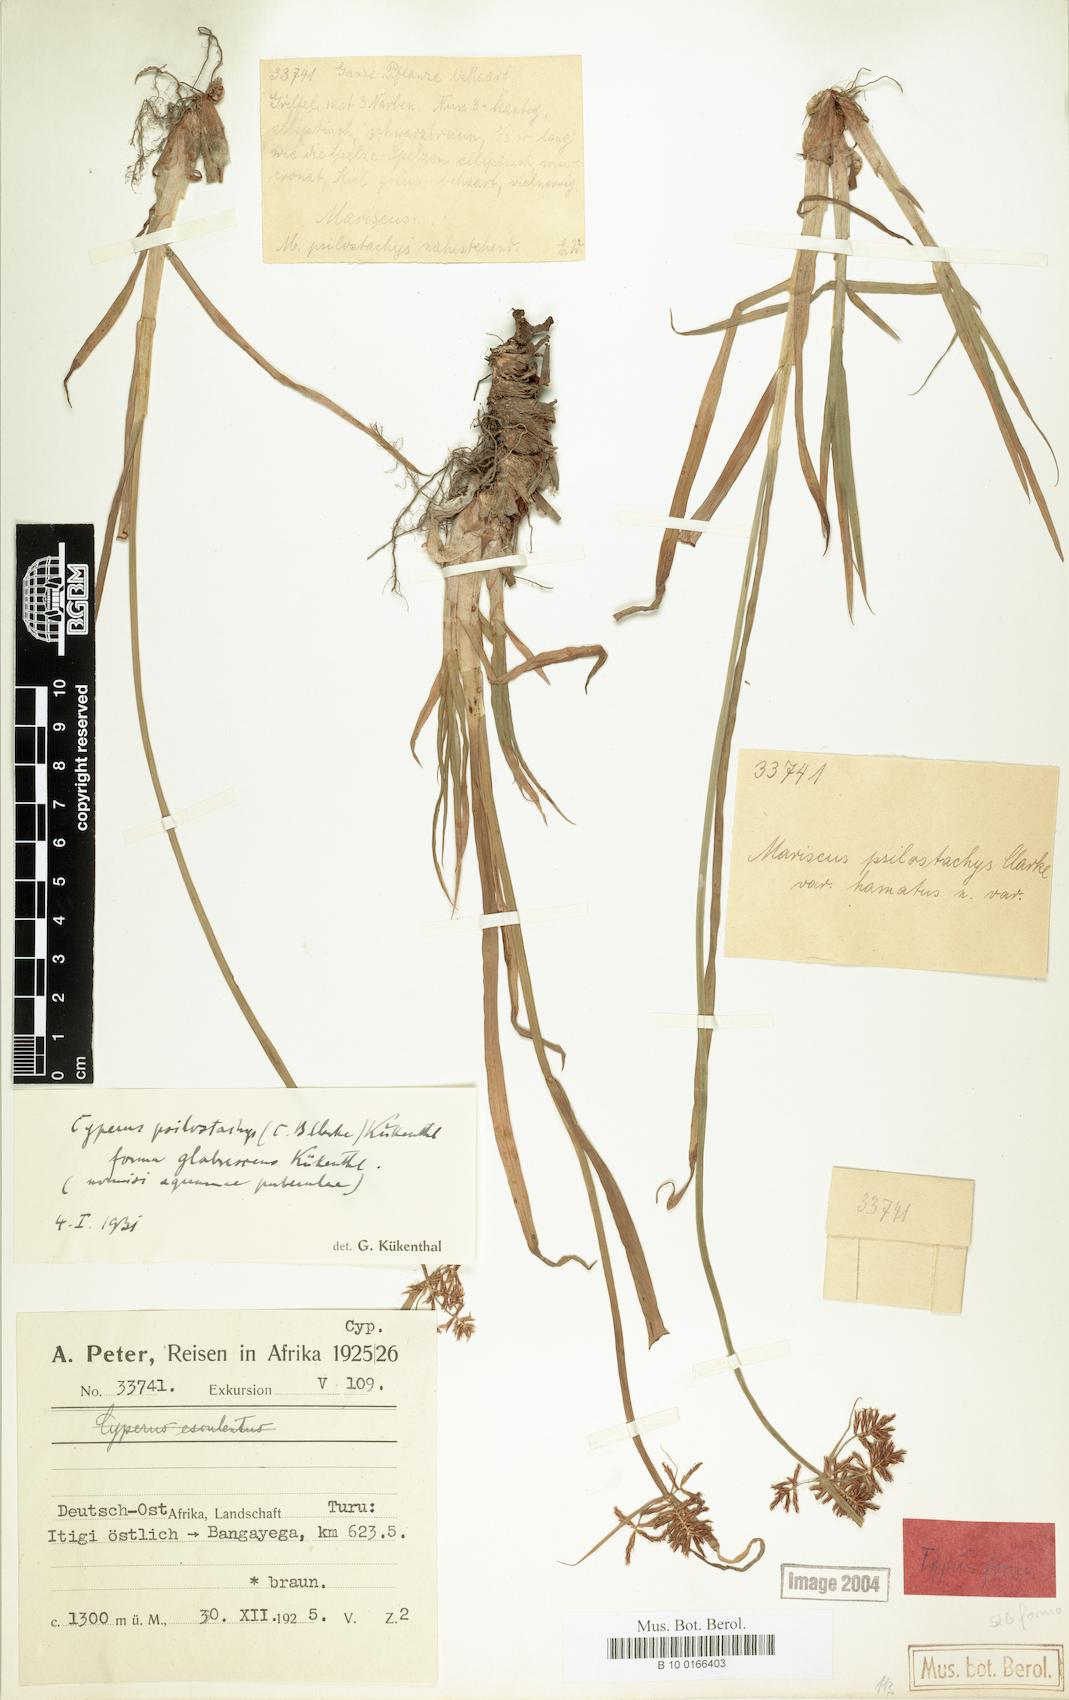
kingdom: Plantae
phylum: Tracheophyta
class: Liliopsida
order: Poales
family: Cyperaceae
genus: Cyperus
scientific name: Cyperus trigonellus
